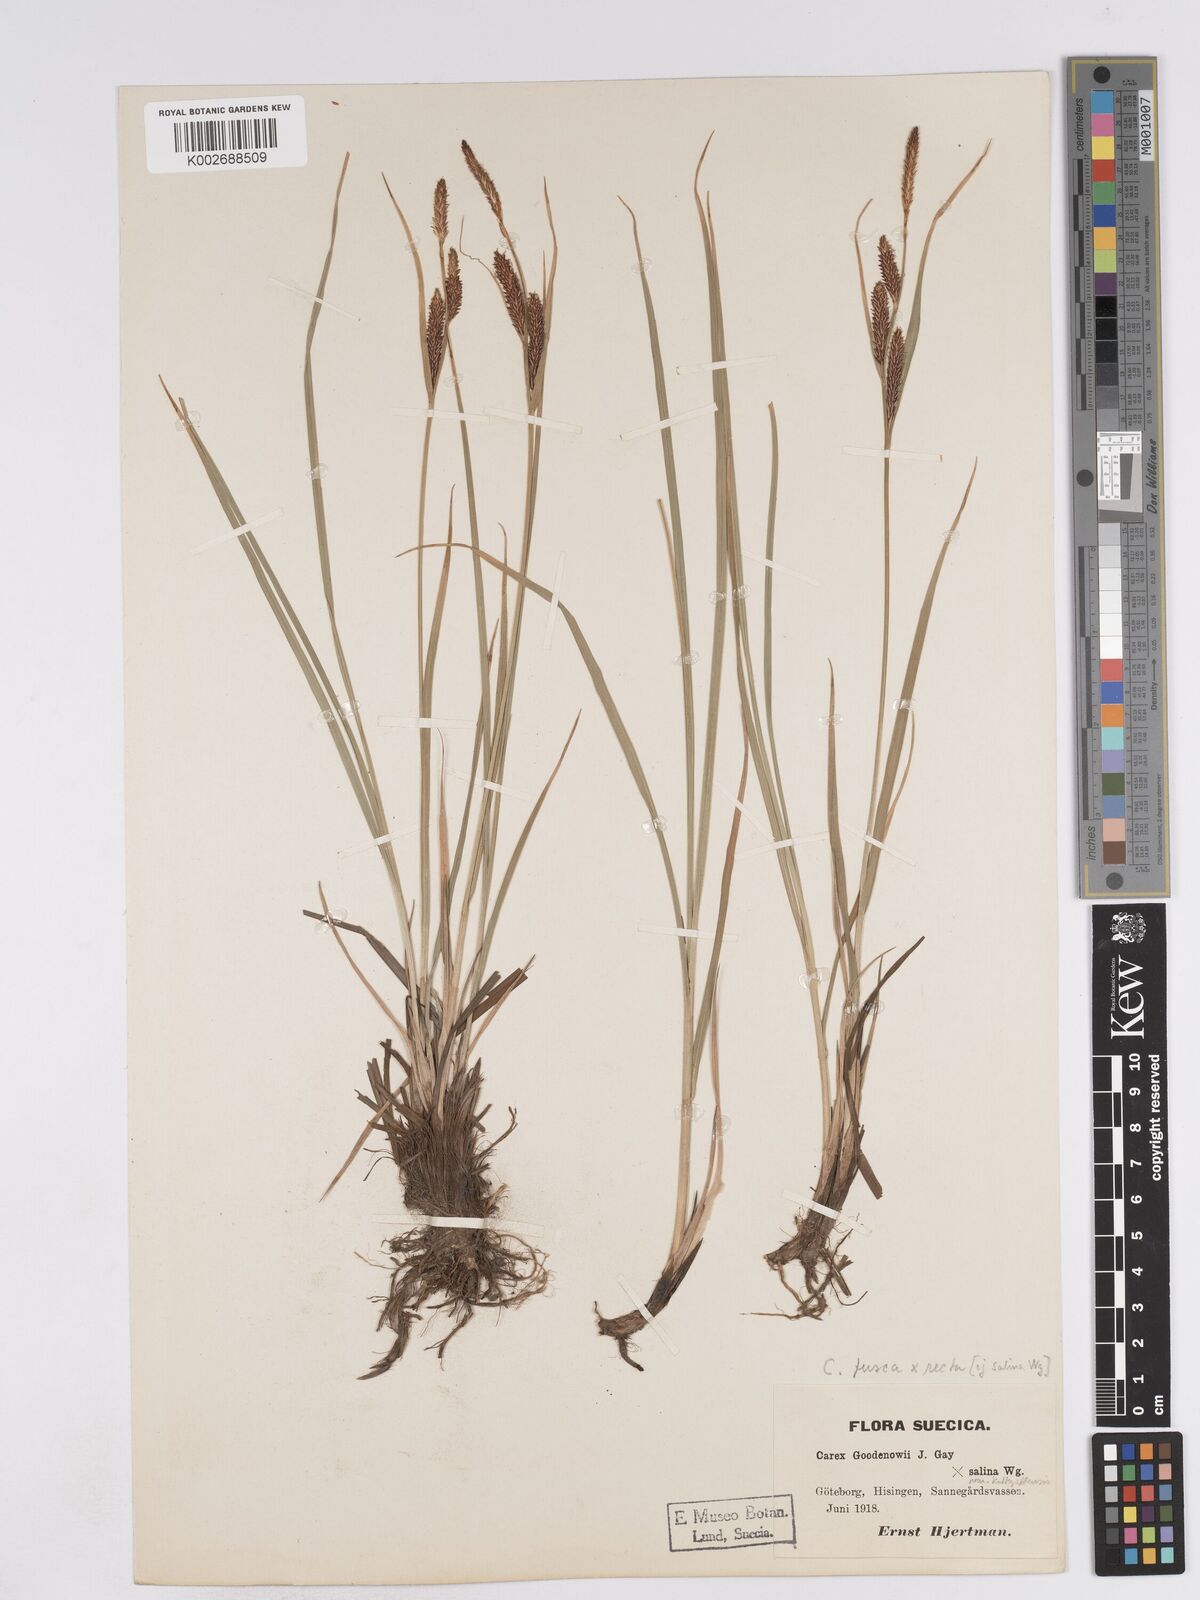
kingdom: Plantae
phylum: Tracheophyta
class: Liliopsida
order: Poales
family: Cyperaceae
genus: Carex
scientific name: Carex recta
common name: Estuarine sedge
